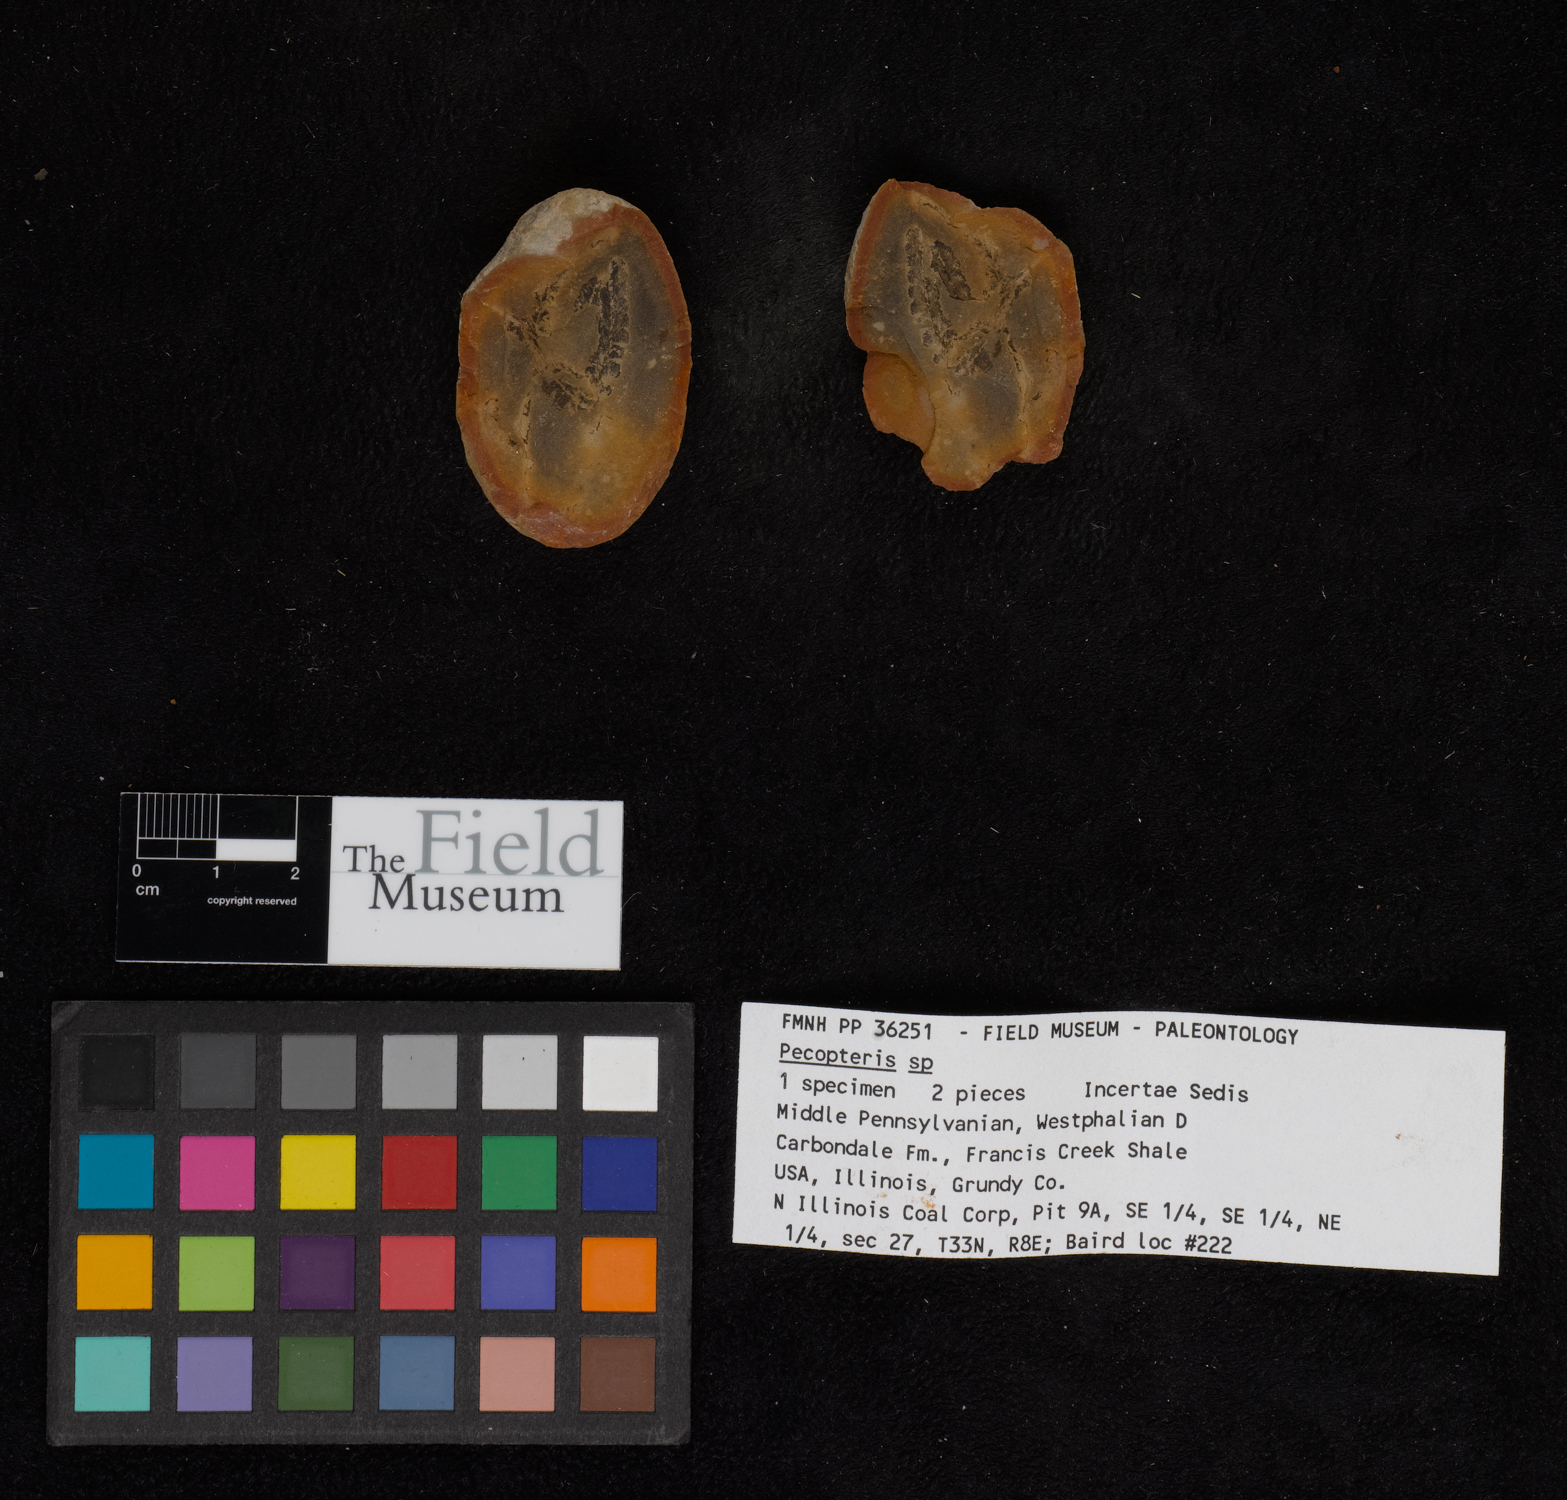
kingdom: Plantae
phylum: Tracheophyta
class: Polypodiopsida
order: Marattiales
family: Asterothecaceae
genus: Pecopteris
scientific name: Pecopteris
